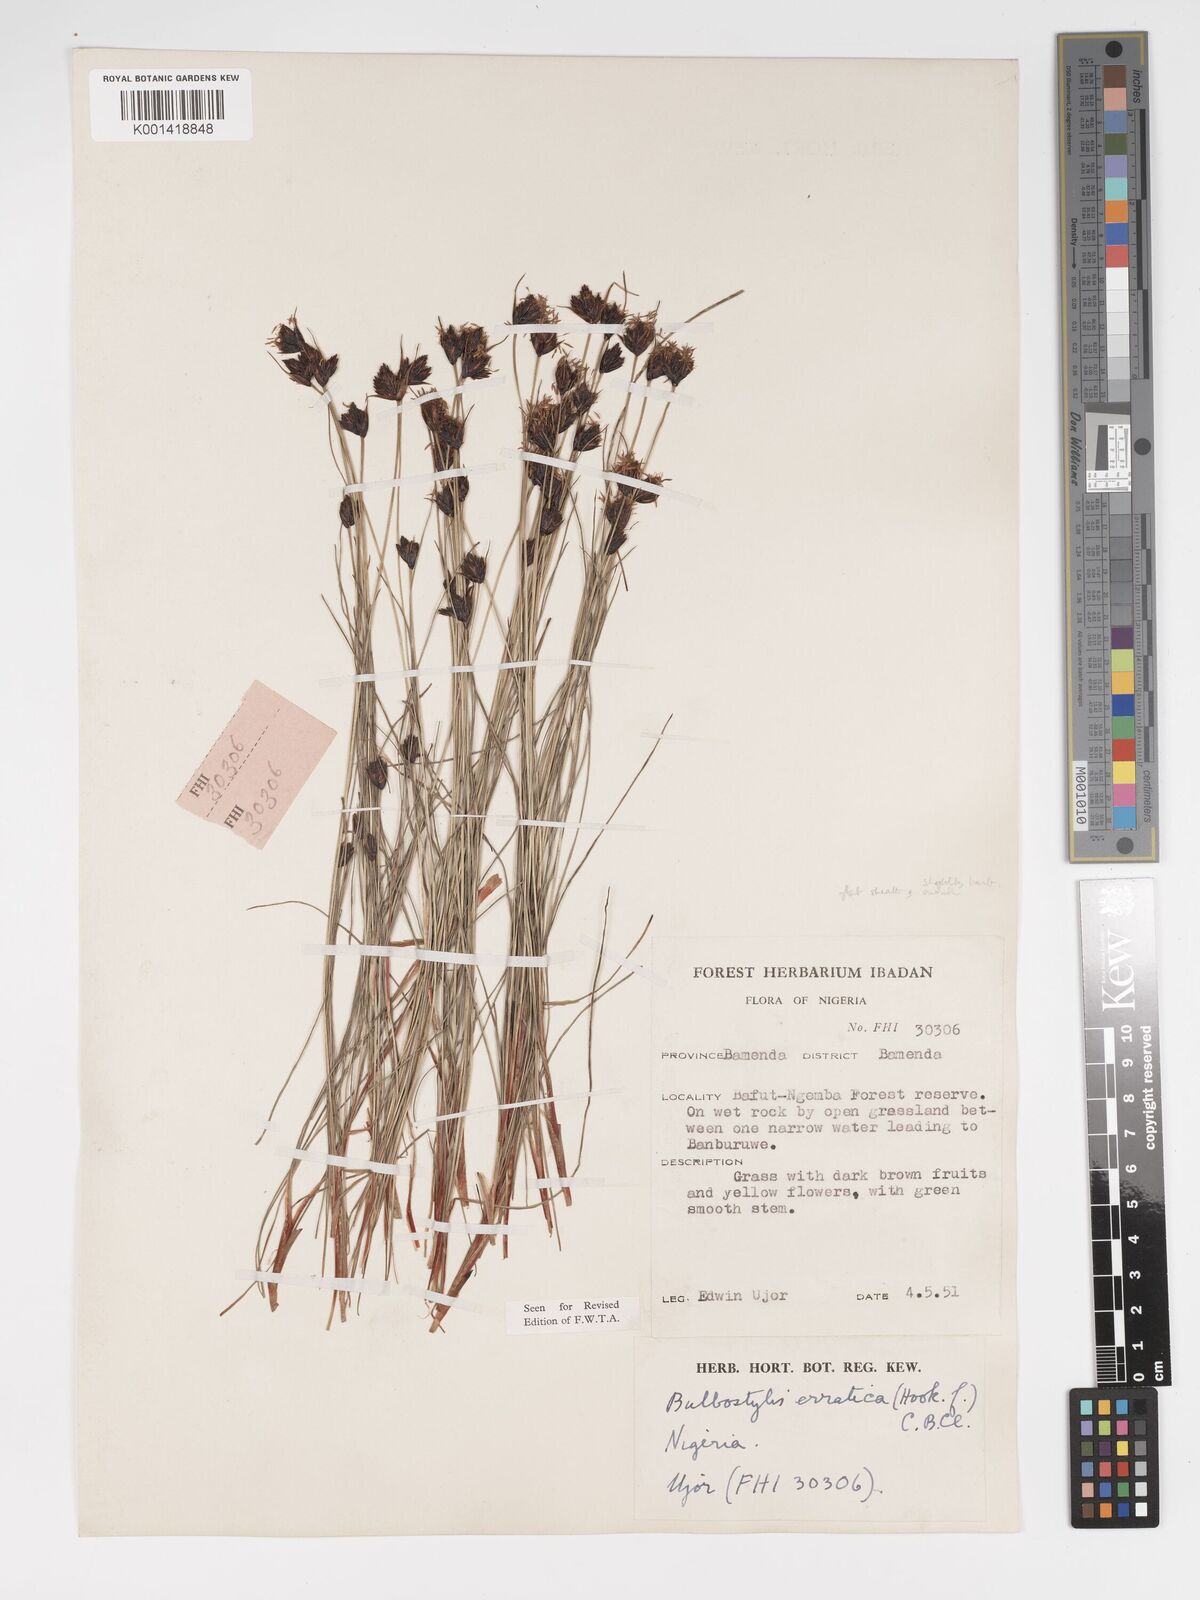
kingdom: Plantae
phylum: Tracheophyta
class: Liliopsida
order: Poales
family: Cyperaceae
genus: Bulbostylis
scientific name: Bulbostylis schoenoides
